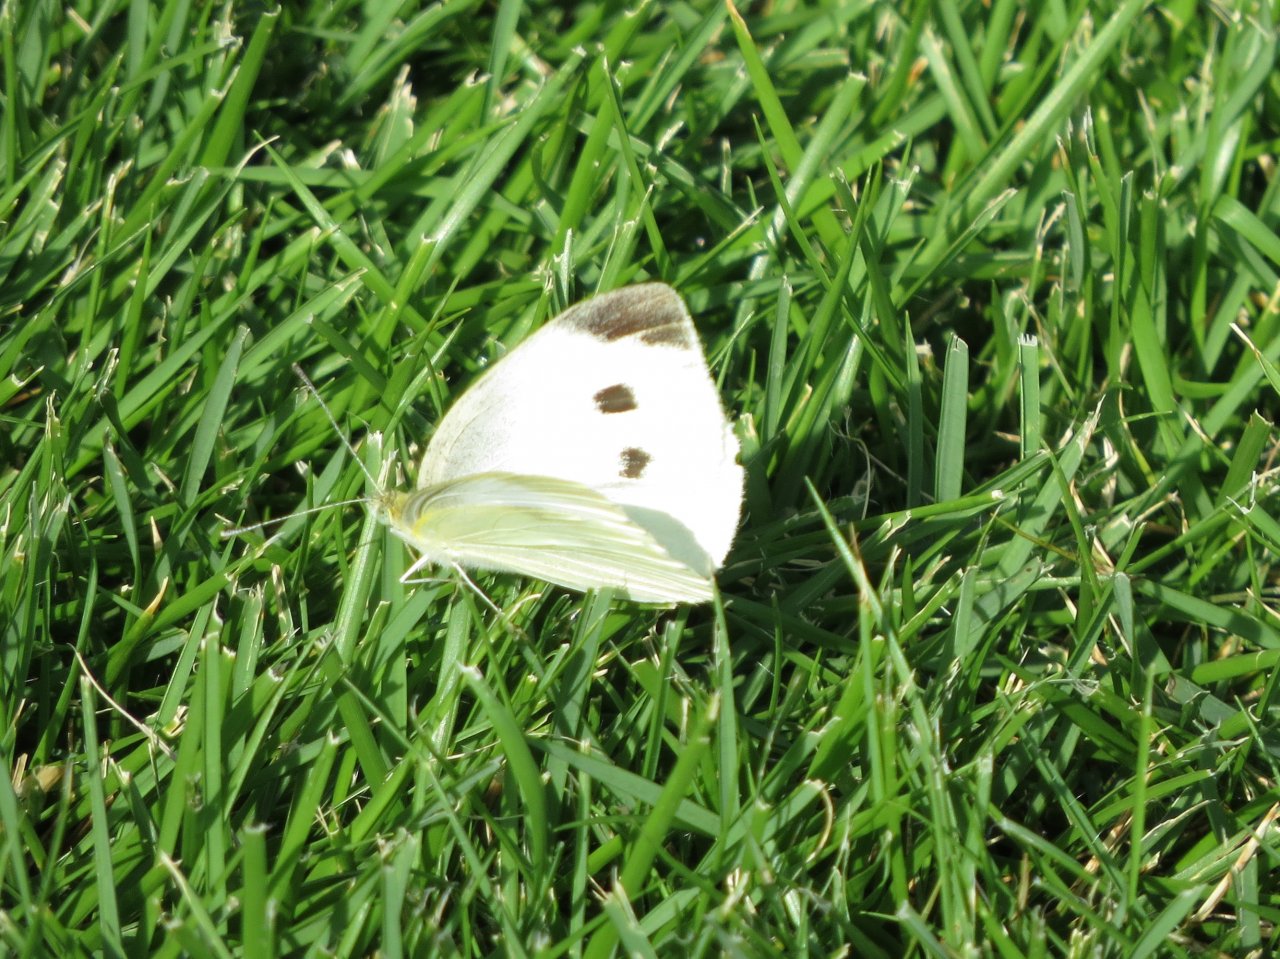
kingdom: Animalia
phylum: Arthropoda
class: Insecta
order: Lepidoptera
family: Pieridae
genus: Pieris
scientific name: Pieris rapae
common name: Cabbage White
